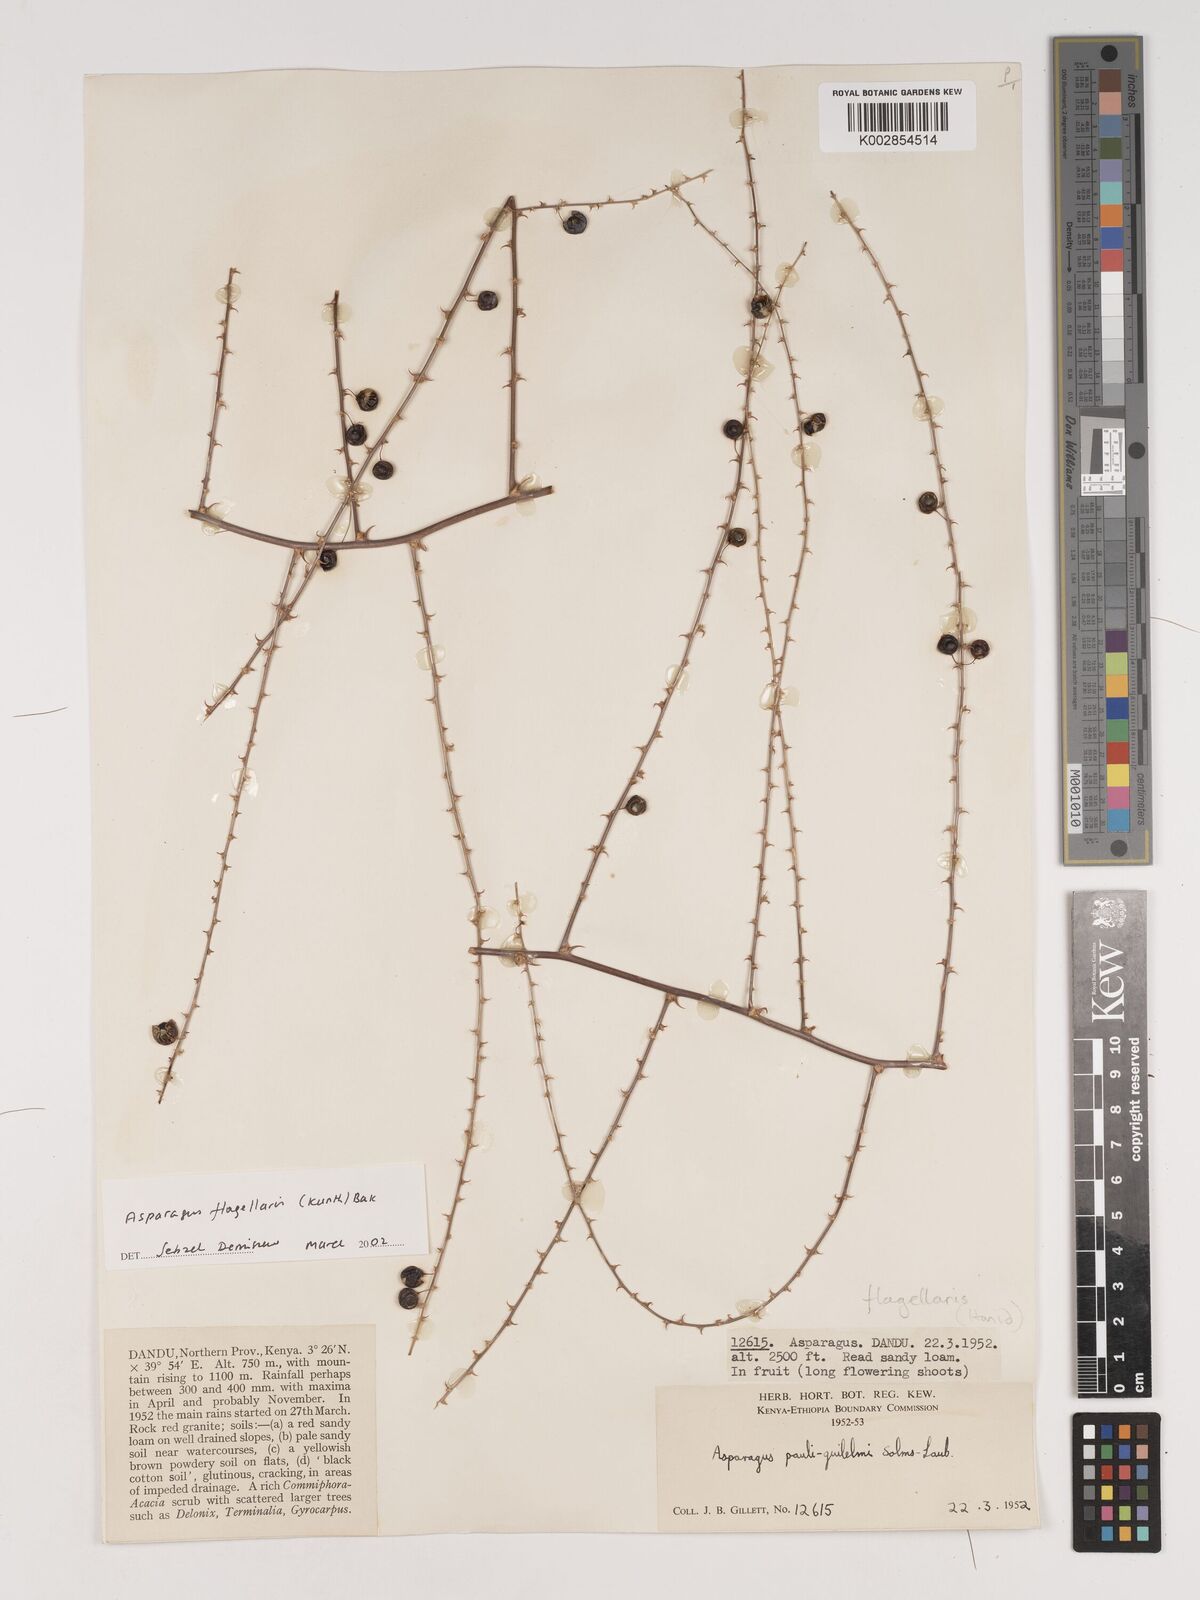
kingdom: Plantae
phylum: Tracheophyta
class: Liliopsida
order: Asparagales
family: Asparagaceae
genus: Asparagus
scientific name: Asparagus flagellaris
